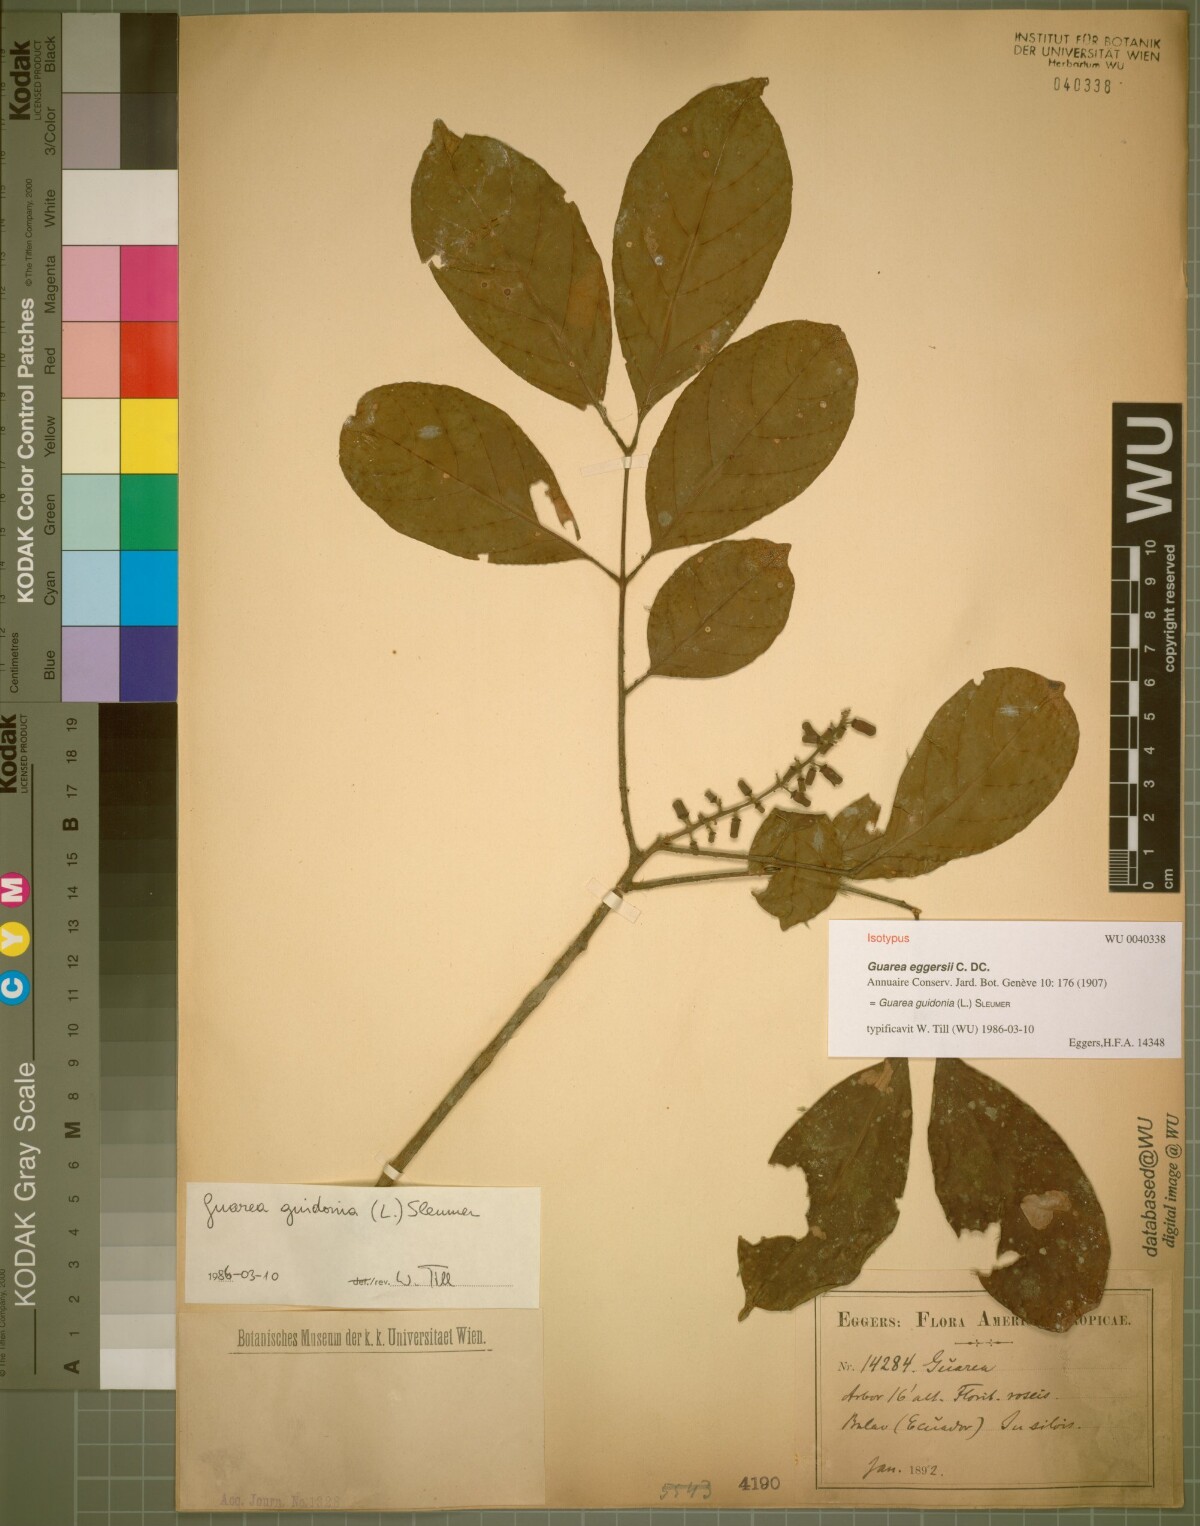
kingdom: Plantae
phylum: Tracheophyta
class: Magnoliopsida
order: Sapindales
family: Meliaceae
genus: Guarea
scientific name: Guarea guidonia
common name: American muskwood
